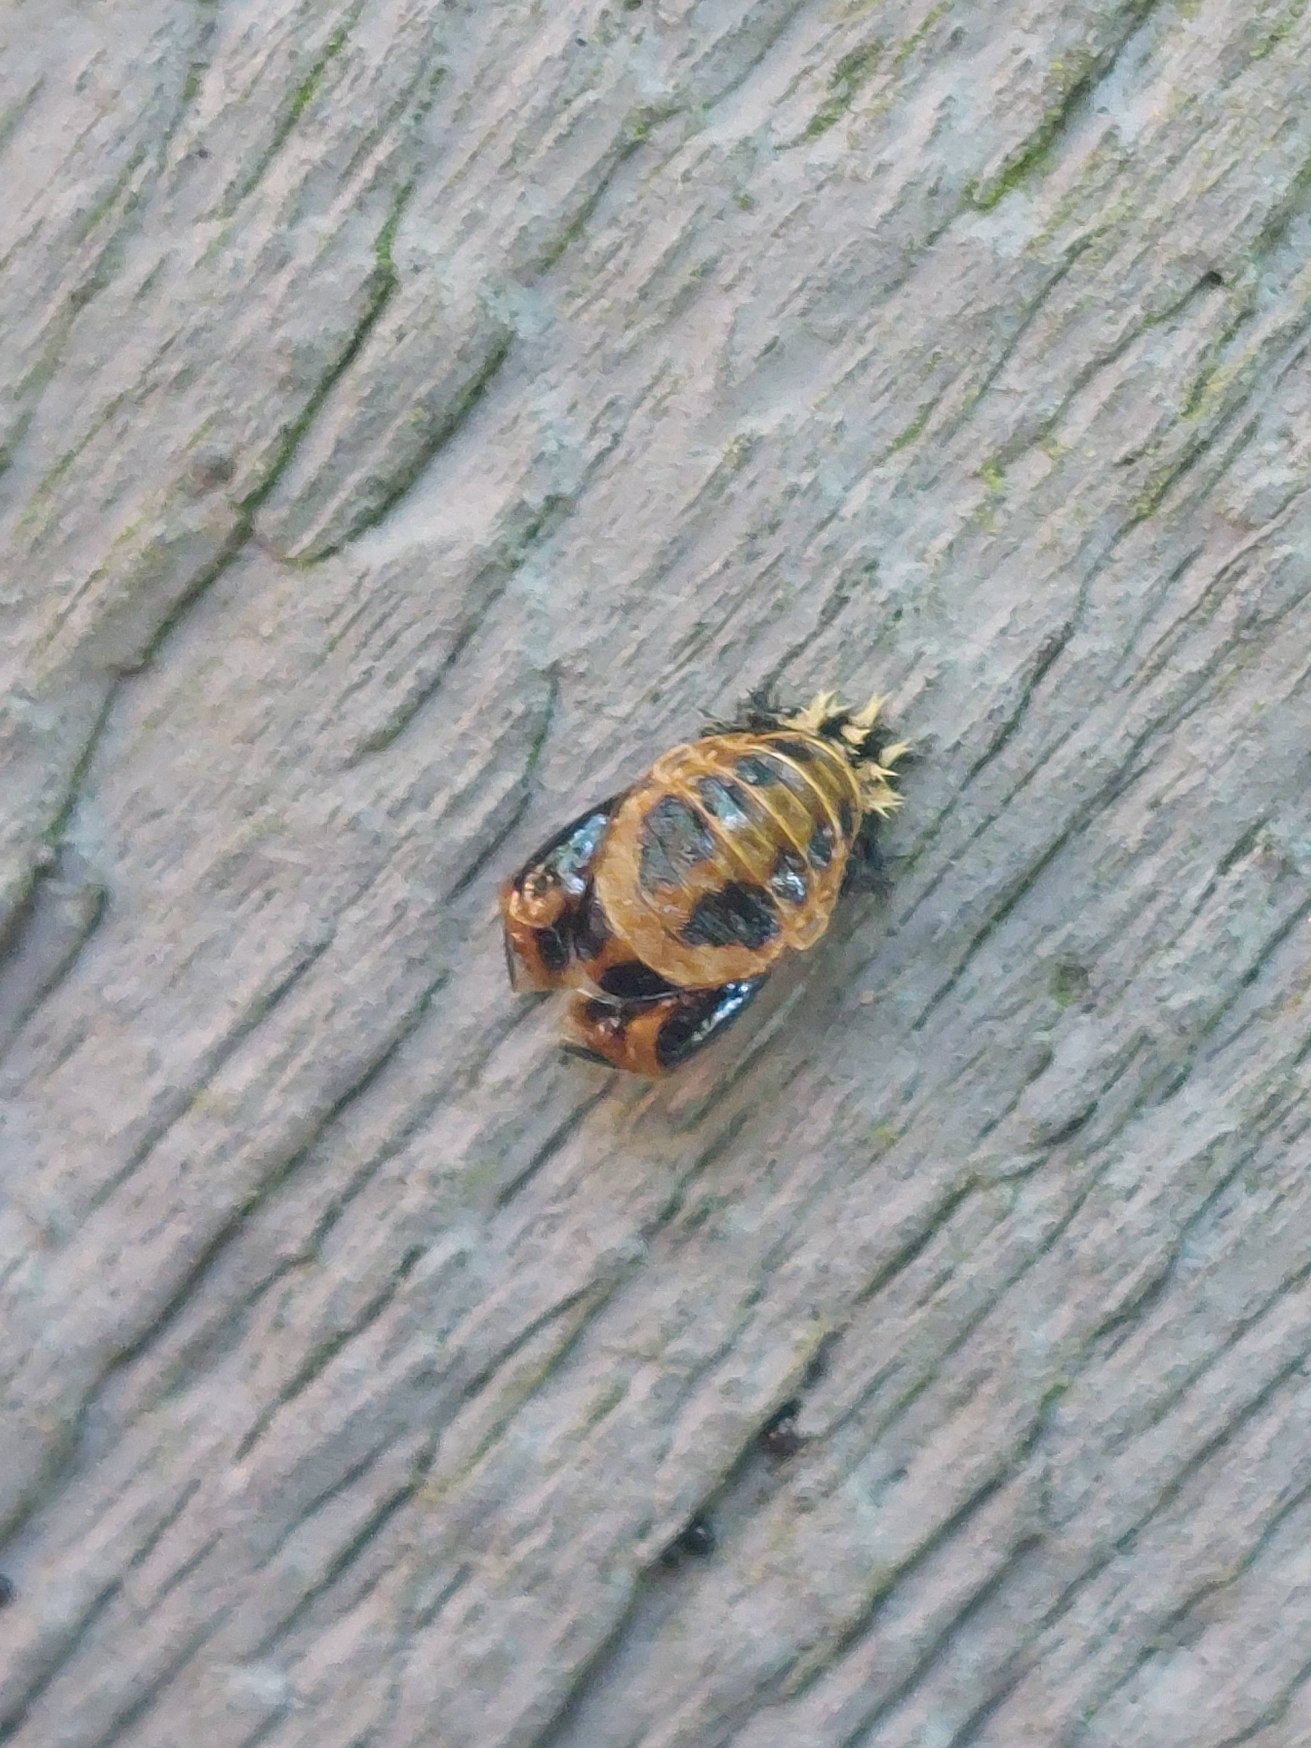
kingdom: Animalia
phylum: Arthropoda
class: Insecta
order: Coleoptera
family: Coccinellidae
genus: Harmonia
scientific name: Harmonia axyridis
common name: Harlekinmariehøne
